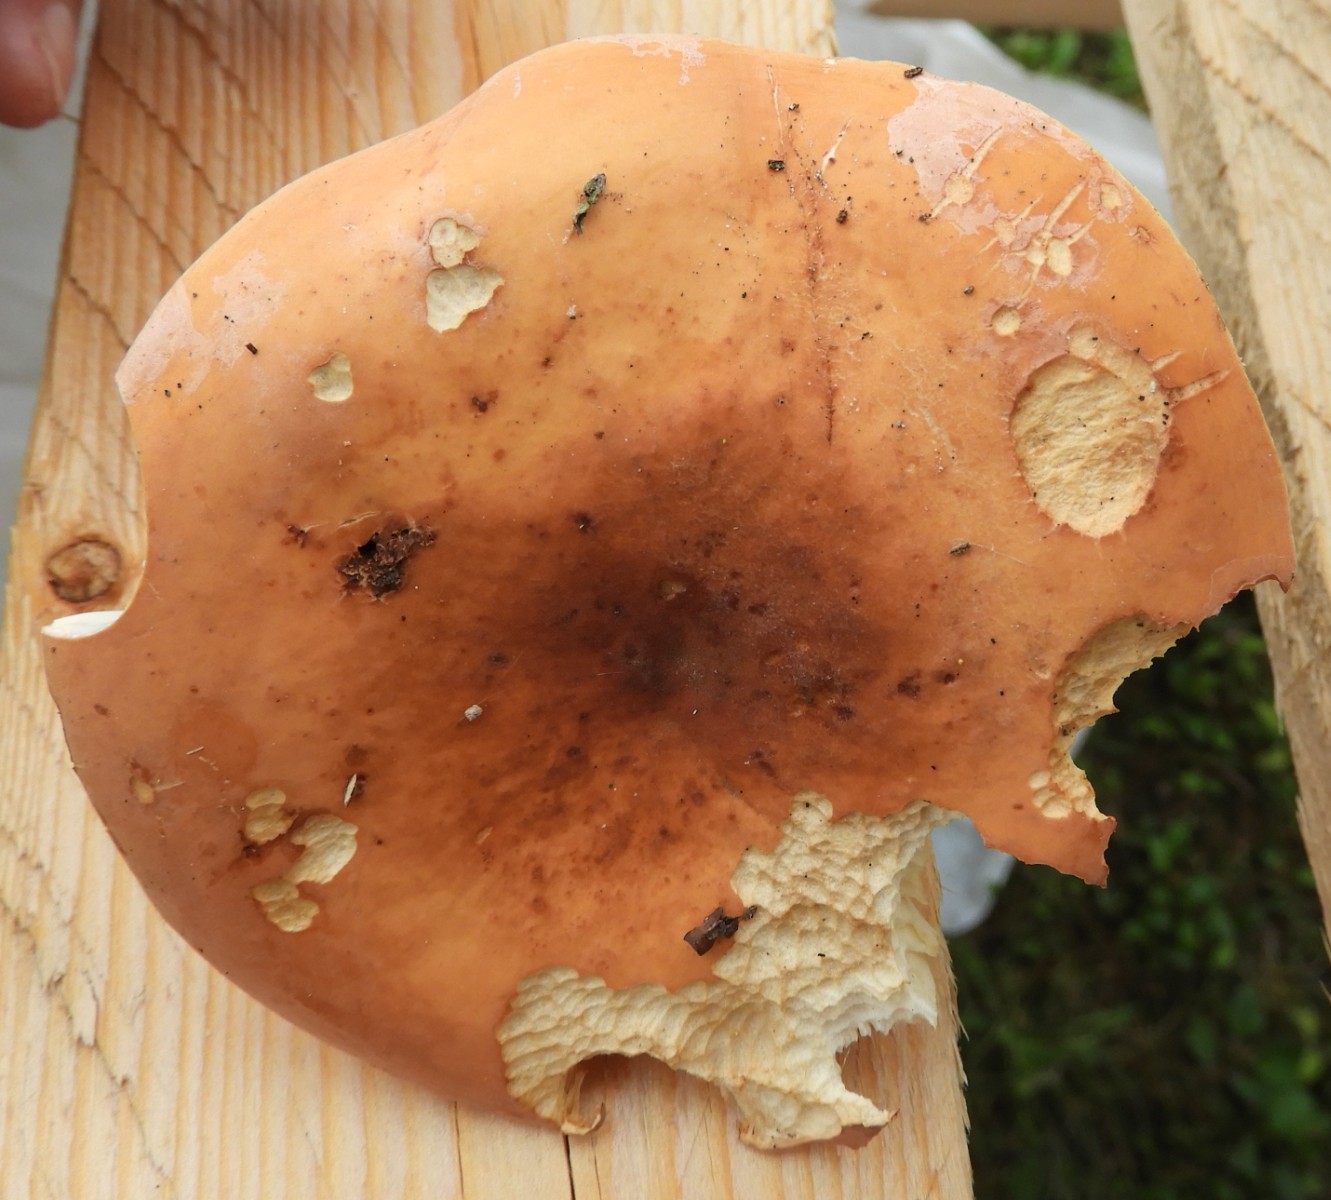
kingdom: Fungi
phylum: Basidiomycota
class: Agaricomycetes
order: Russulales
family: Russulaceae
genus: Lactifluus
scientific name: Lactifluus volemus
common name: spiselig mælkehat
